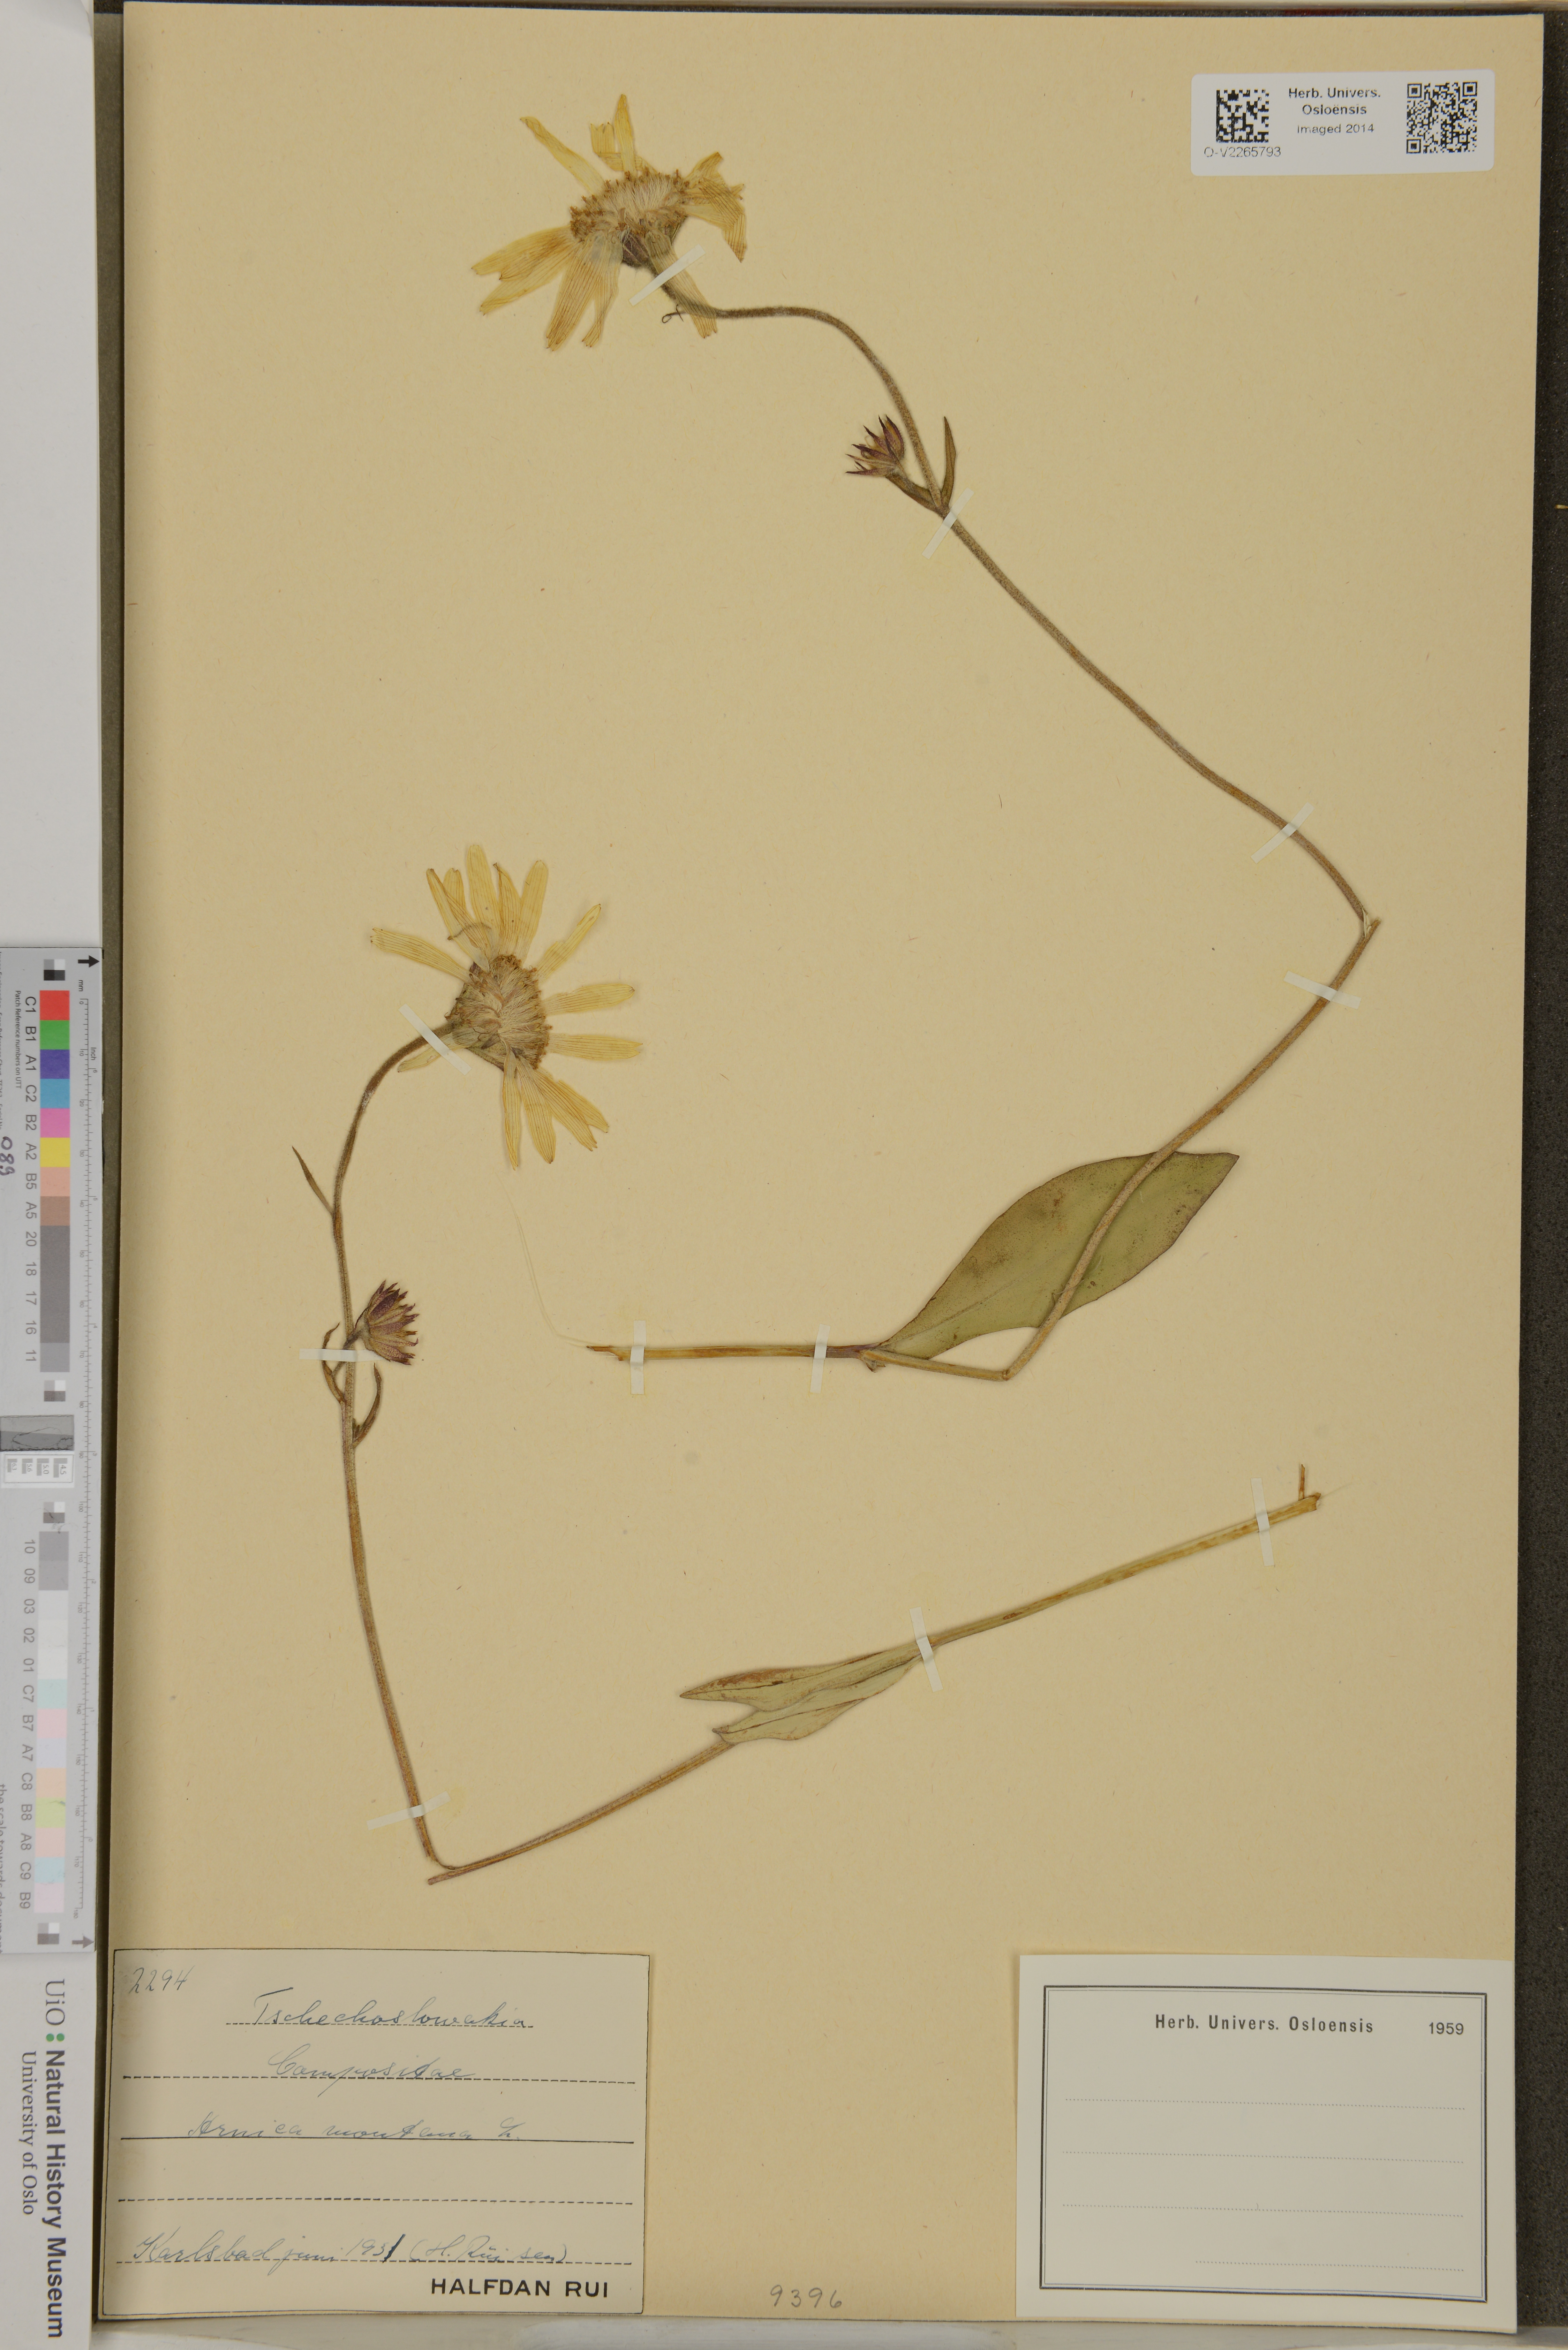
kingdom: Plantae
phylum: Tracheophyta
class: Magnoliopsida
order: Asterales
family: Asteraceae
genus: Arnica
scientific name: Arnica montana
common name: Leopard's bane
